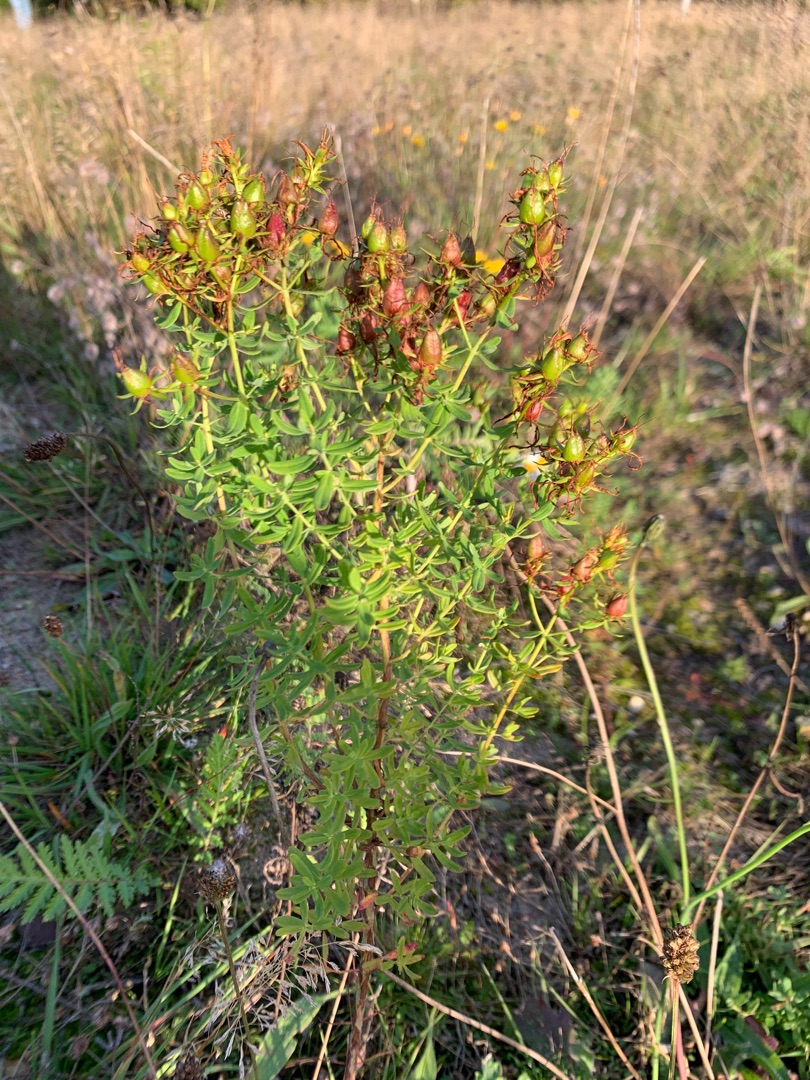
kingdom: Plantae
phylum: Tracheophyta
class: Magnoliopsida
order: Malpighiales
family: Hypericaceae
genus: Hypericum
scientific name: Hypericum perforatum
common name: Prikbladet perikon
